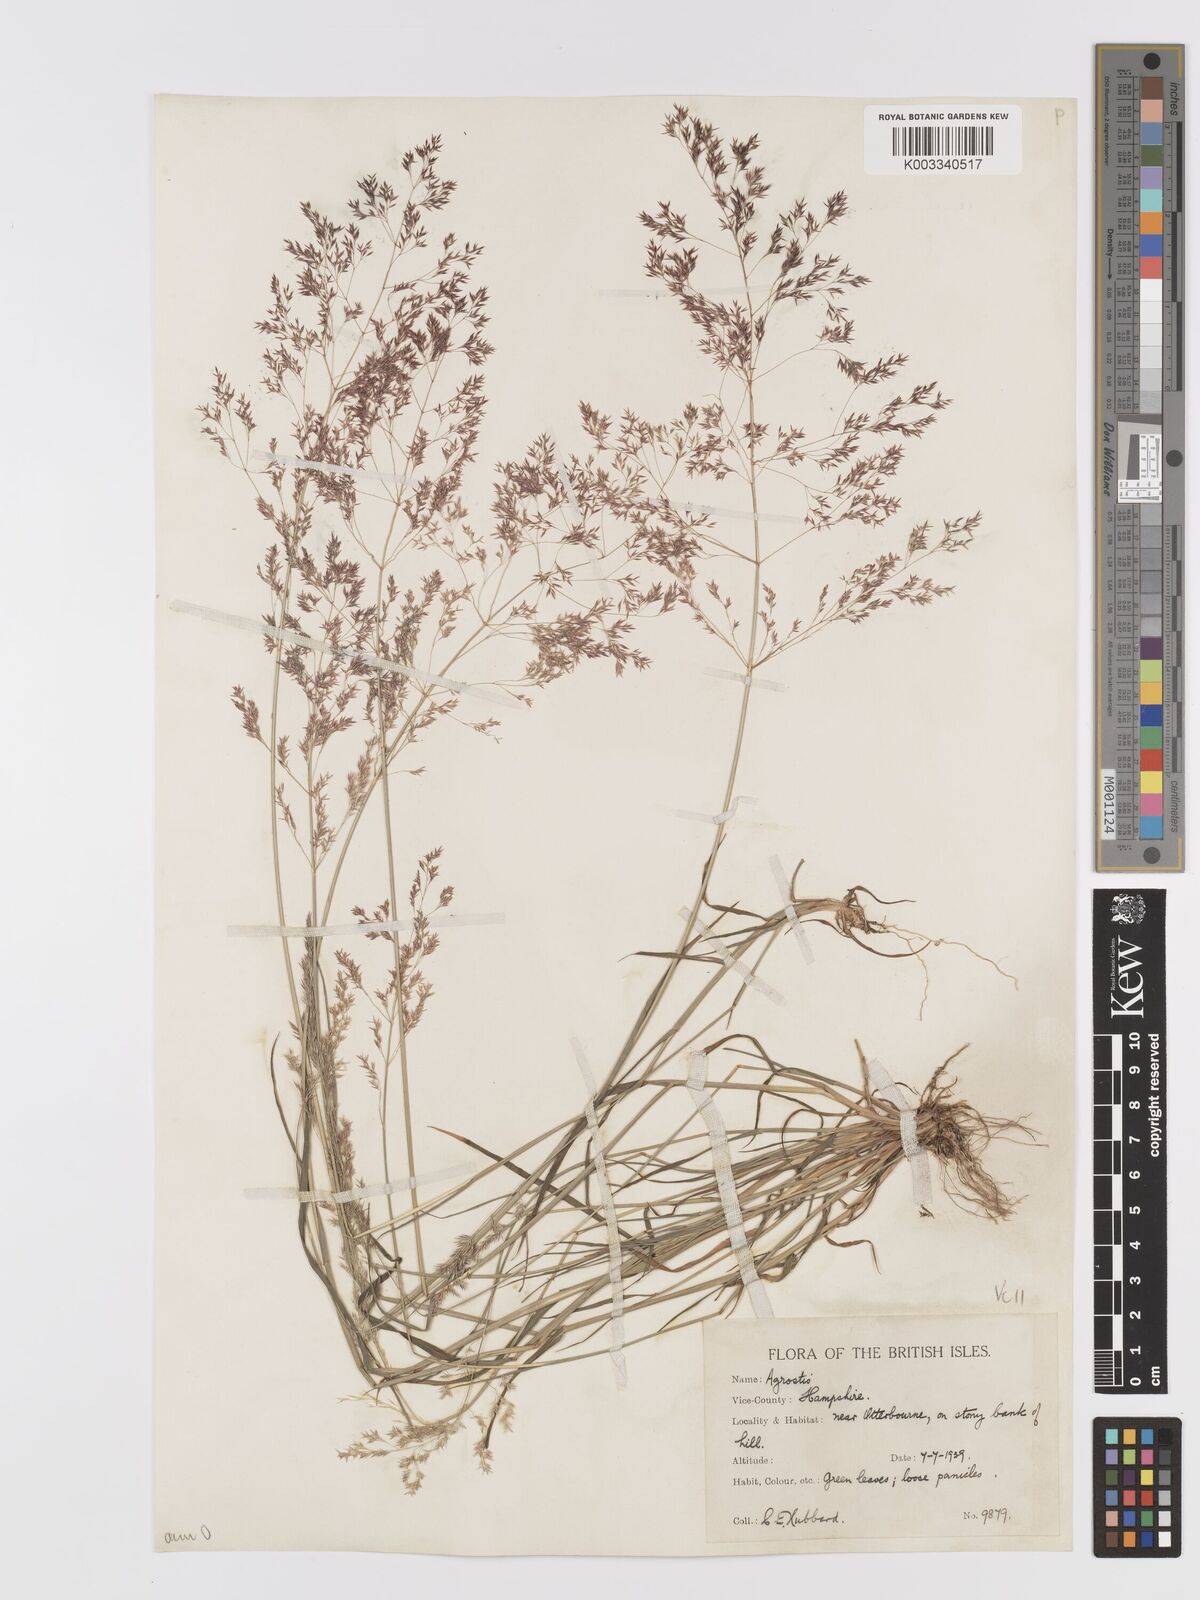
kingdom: Plantae
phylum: Tracheophyta
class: Liliopsida
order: Poales
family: Poaceae
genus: Agrostis
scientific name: Agrostis capillaris
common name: Colonial bentgrass
